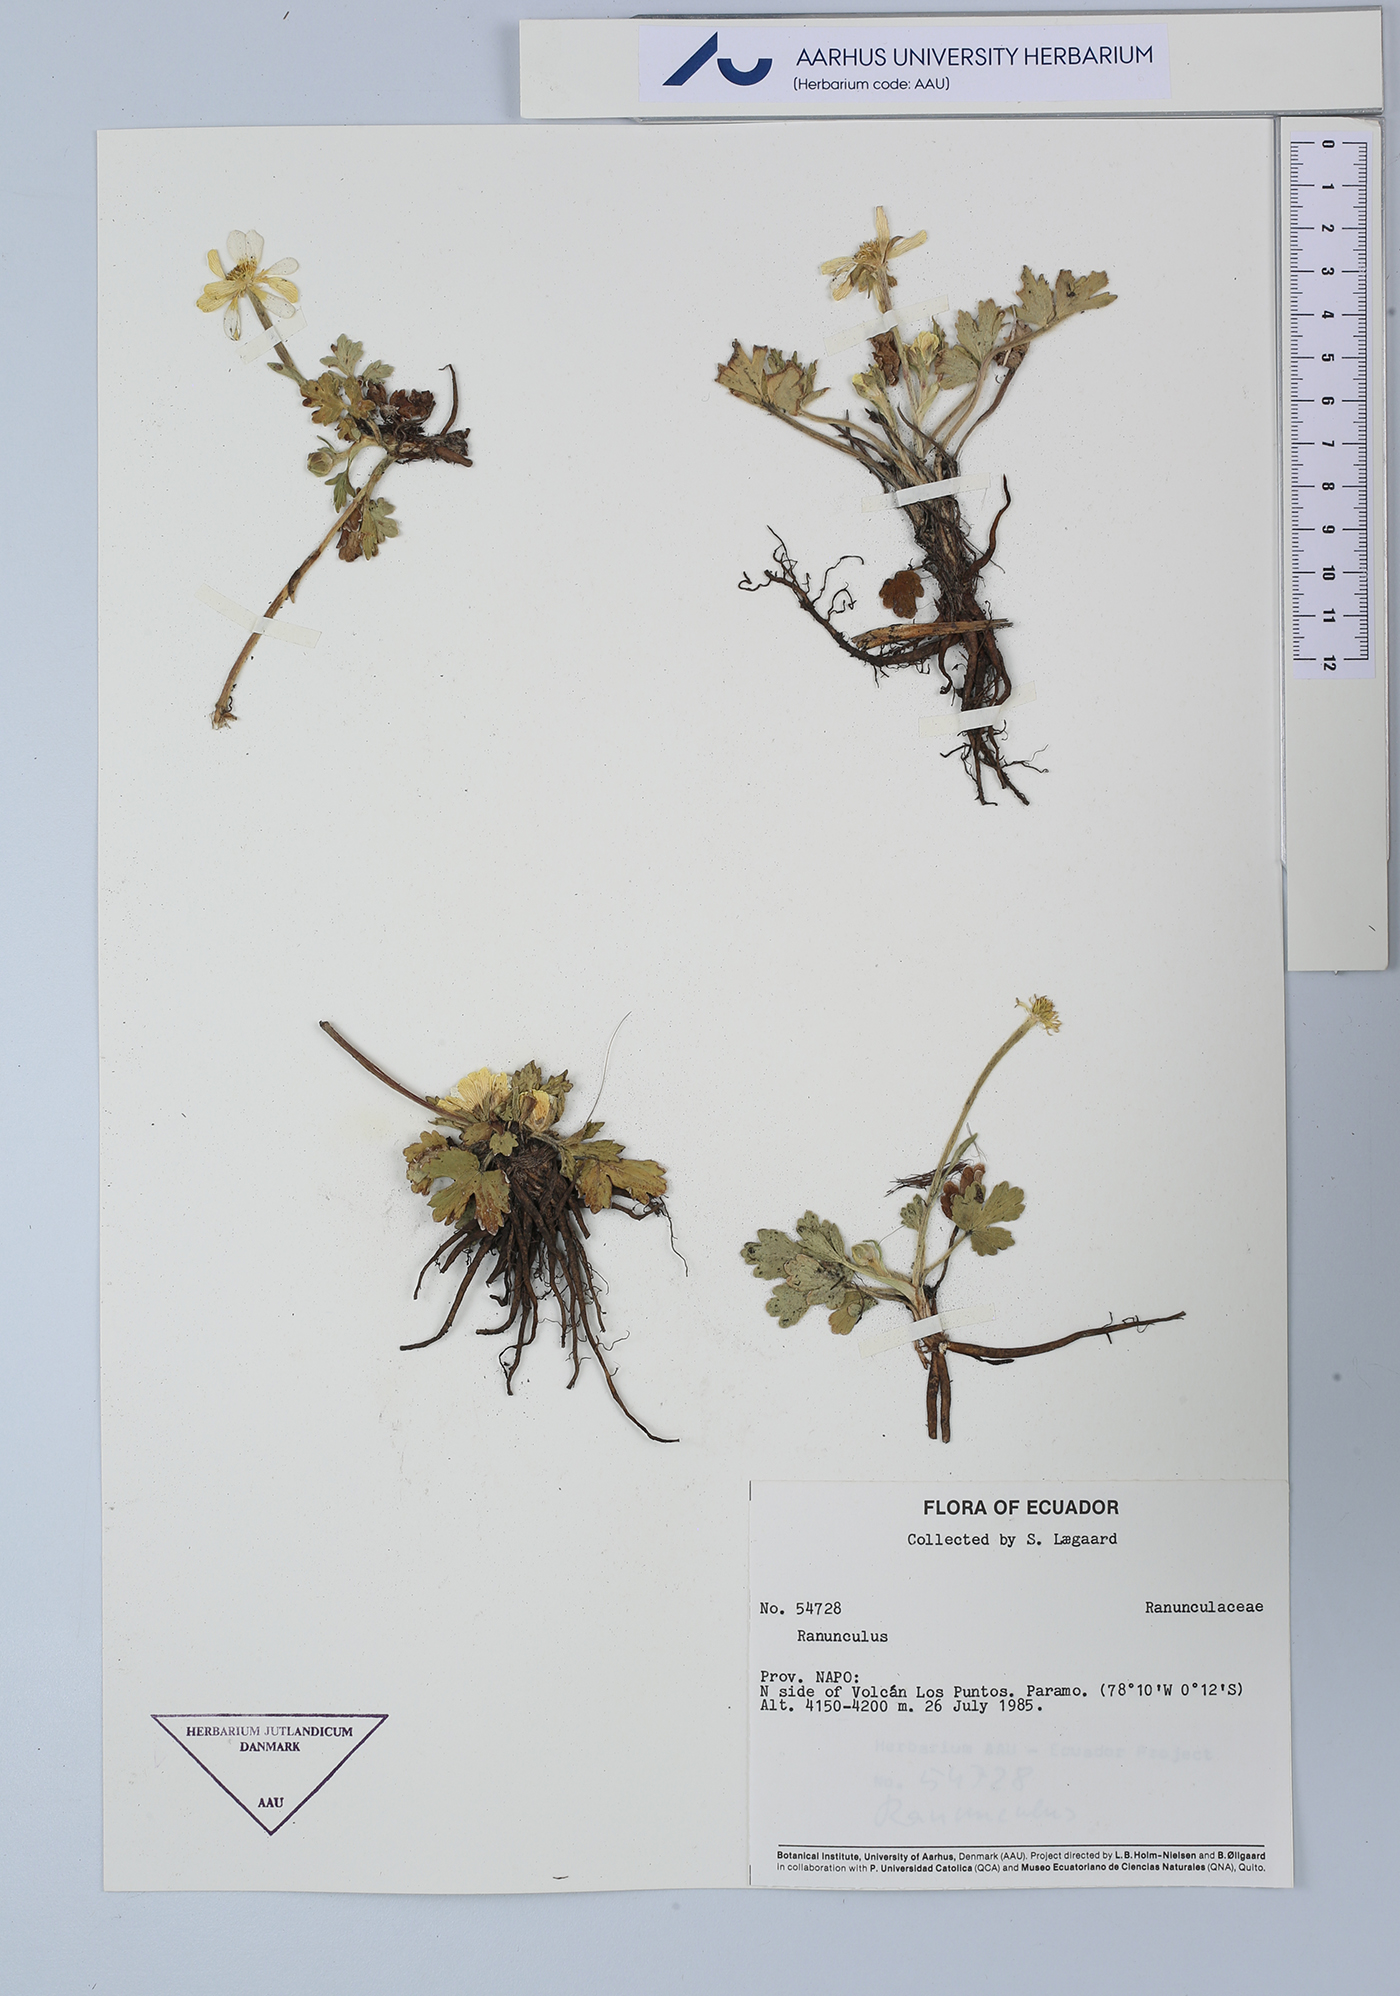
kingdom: Plantae
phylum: Tracheophyta
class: Magnoliopsida
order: Ranunculales
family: Ranunculaceae
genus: Ranunculus
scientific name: Ranunculus
